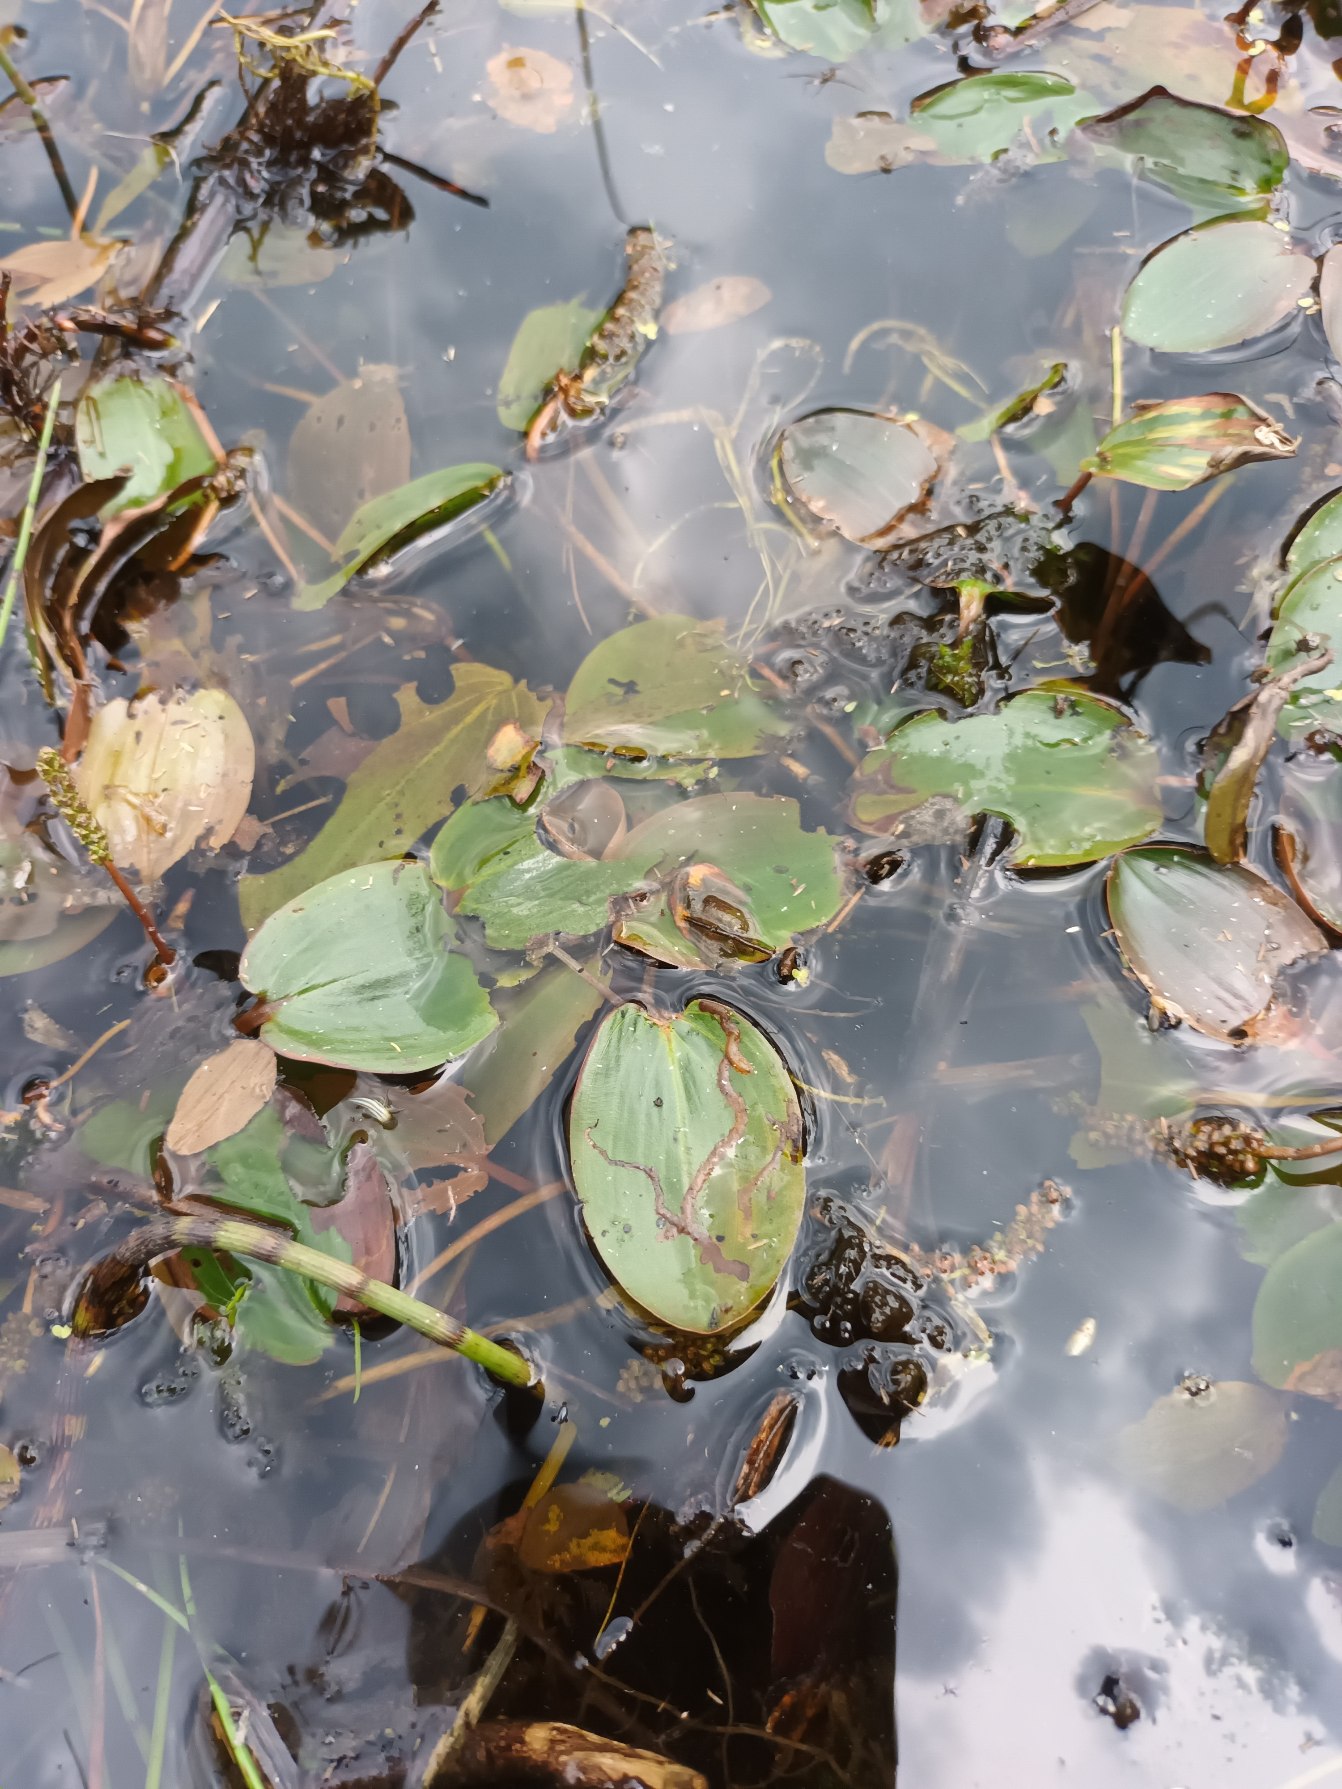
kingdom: Plantae
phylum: Tracheophyta
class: Liliopsida
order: Alismatales
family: Potamogetonaceae
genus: Potamogeton
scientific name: Potamogeton natans
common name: Svømmende vandaks
